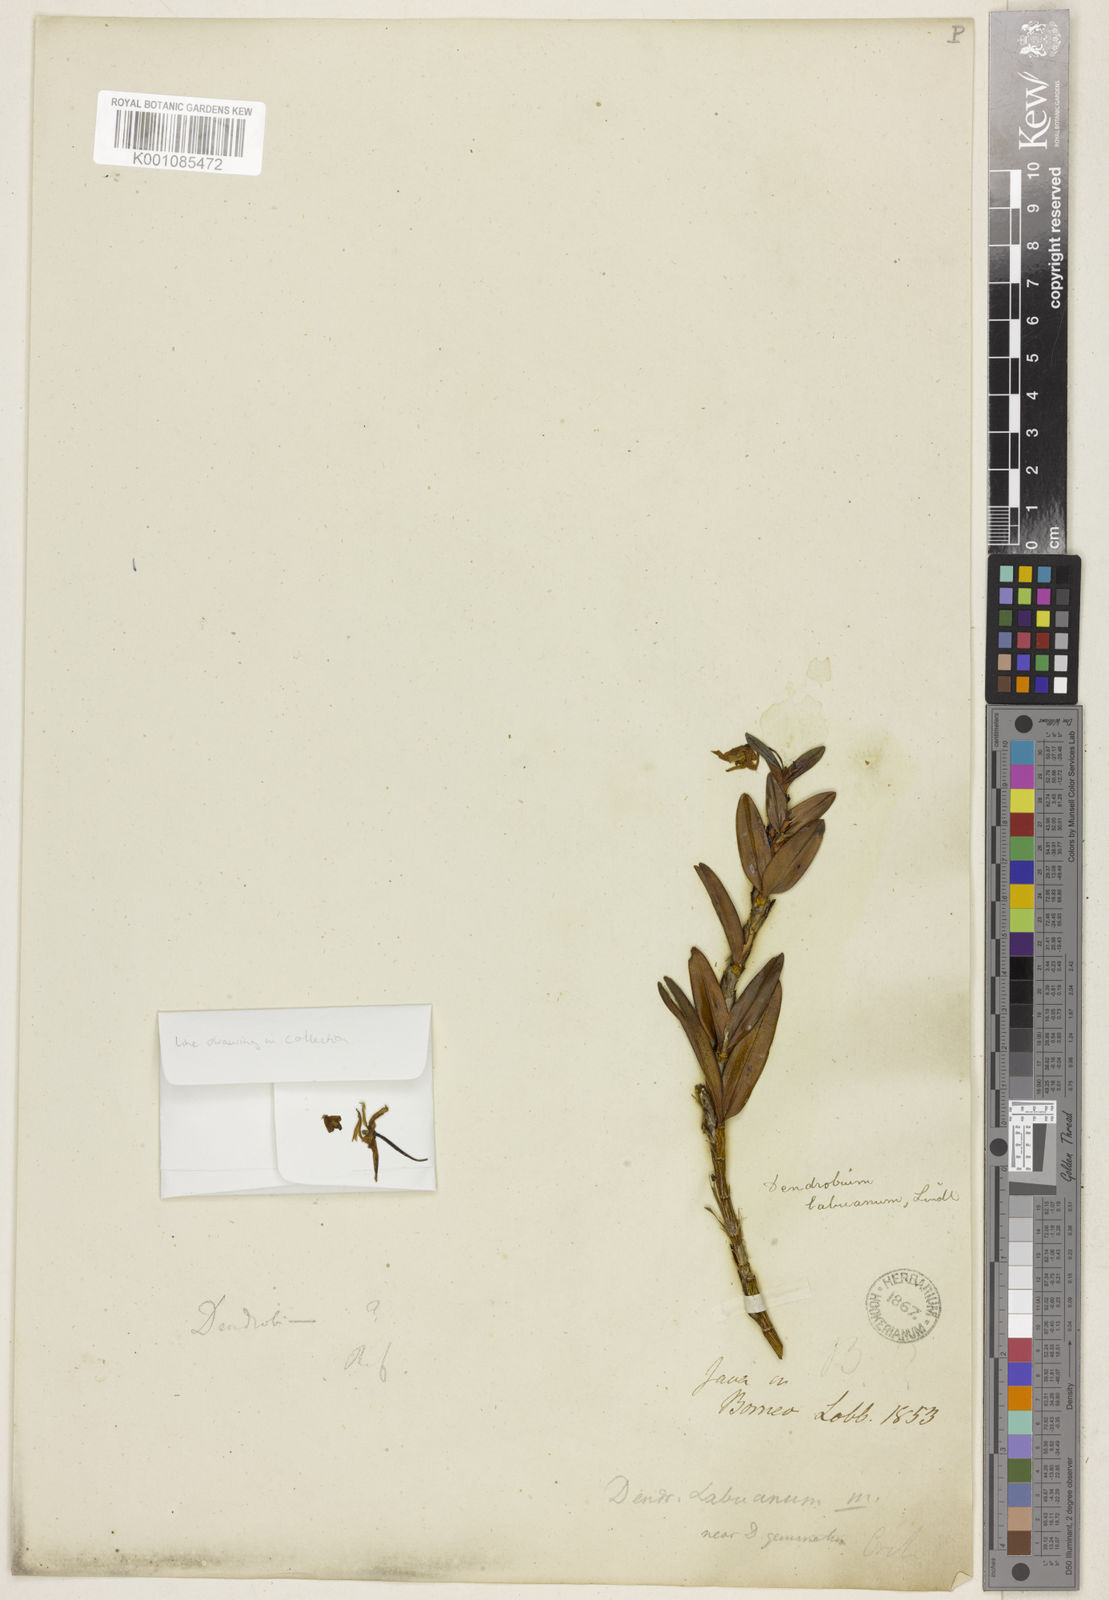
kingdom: Plantae
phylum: Tracheophyta
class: Liliopsida
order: Asparagales
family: Orchidaceae
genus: Dendrobium
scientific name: Dendrobium labuanum
